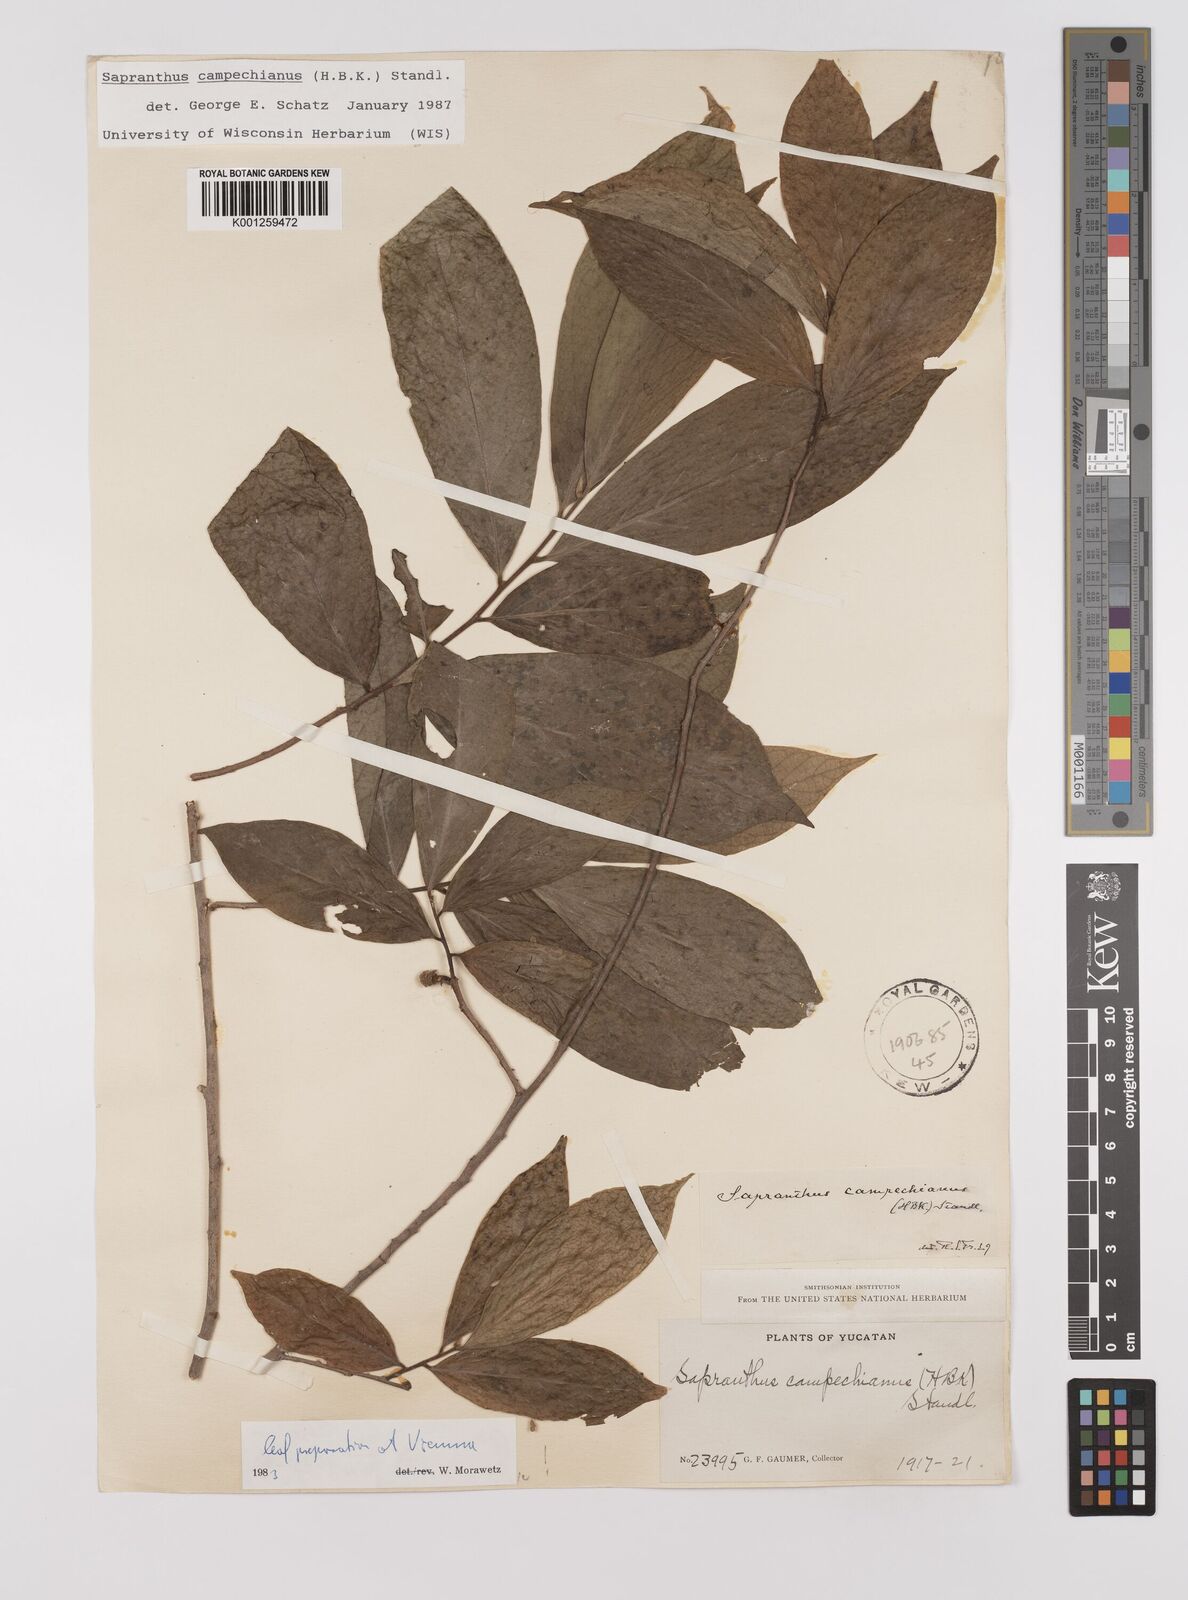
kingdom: Plantae
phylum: Tracheophyta
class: Magnoliopsida
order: Magnoliales
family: Annonaceae
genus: Sapranthus
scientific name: Sapranthus campechianus
